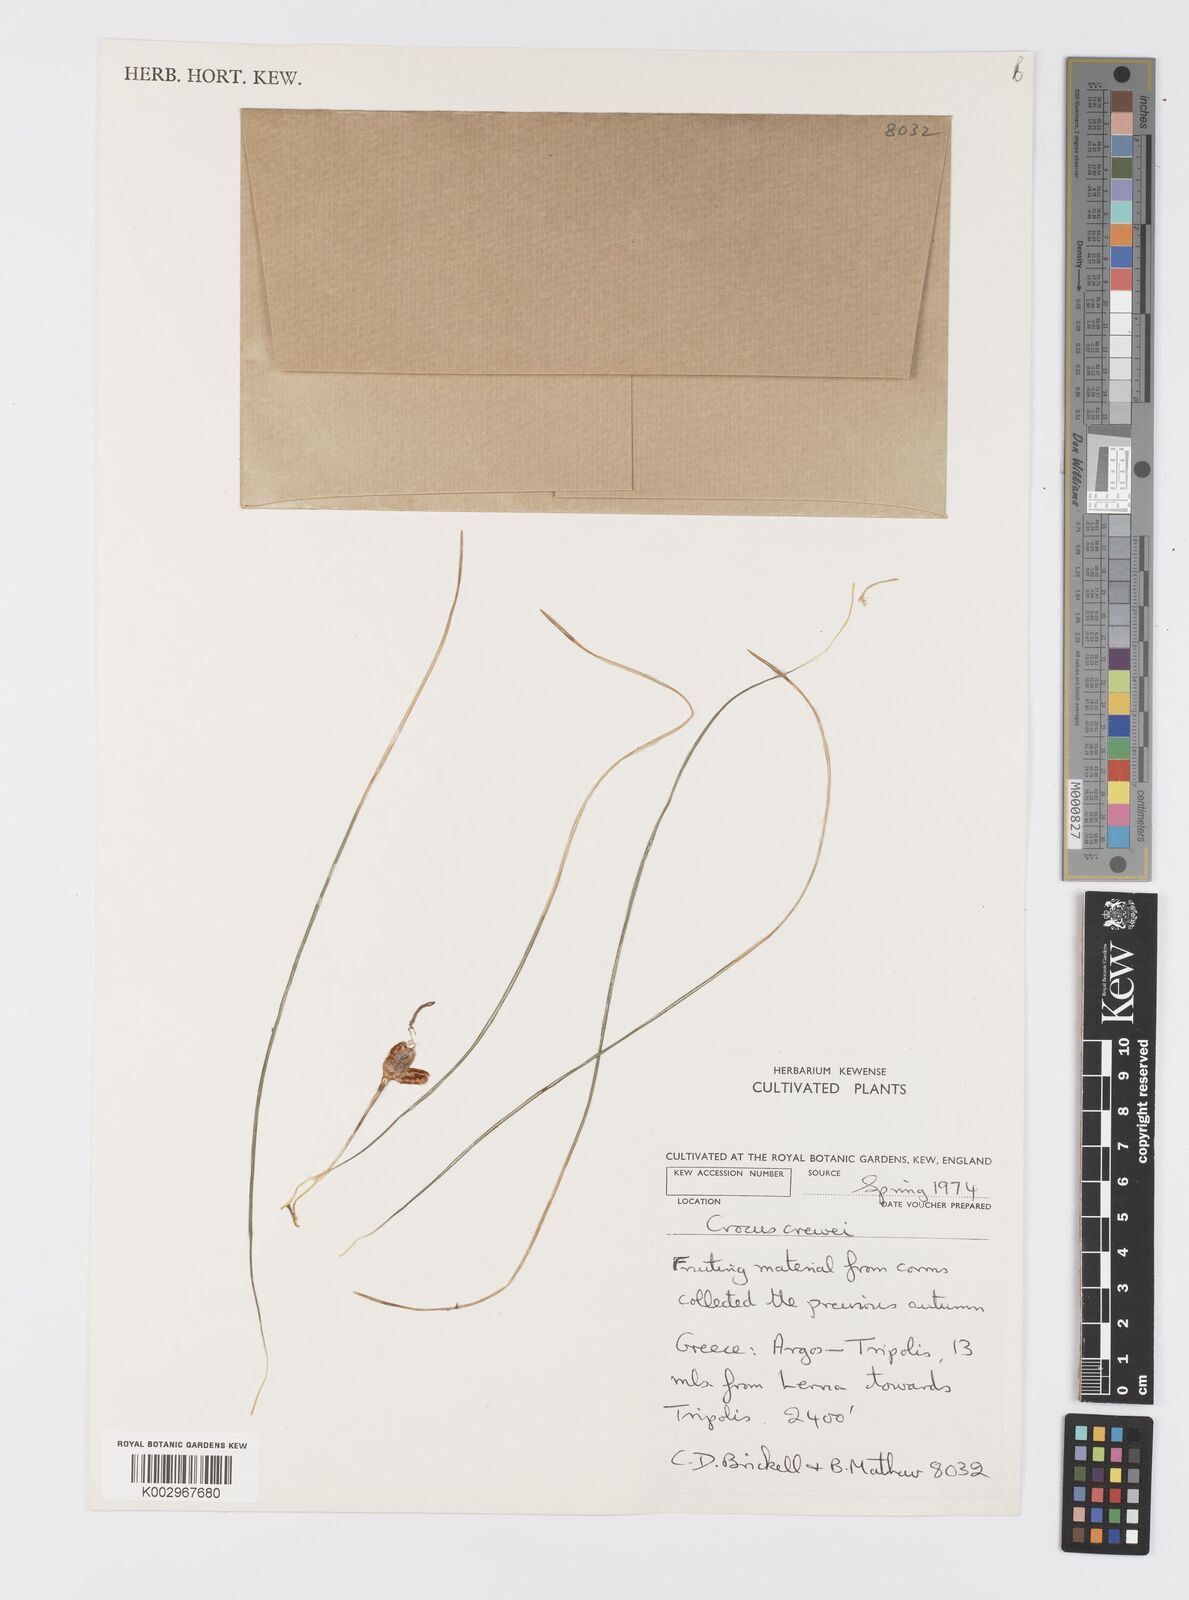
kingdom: Plantae
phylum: Tracheophyta
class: Liliopsida
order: Asparagales
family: Iridaceae
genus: Crocus
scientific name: Crocus melantherus
